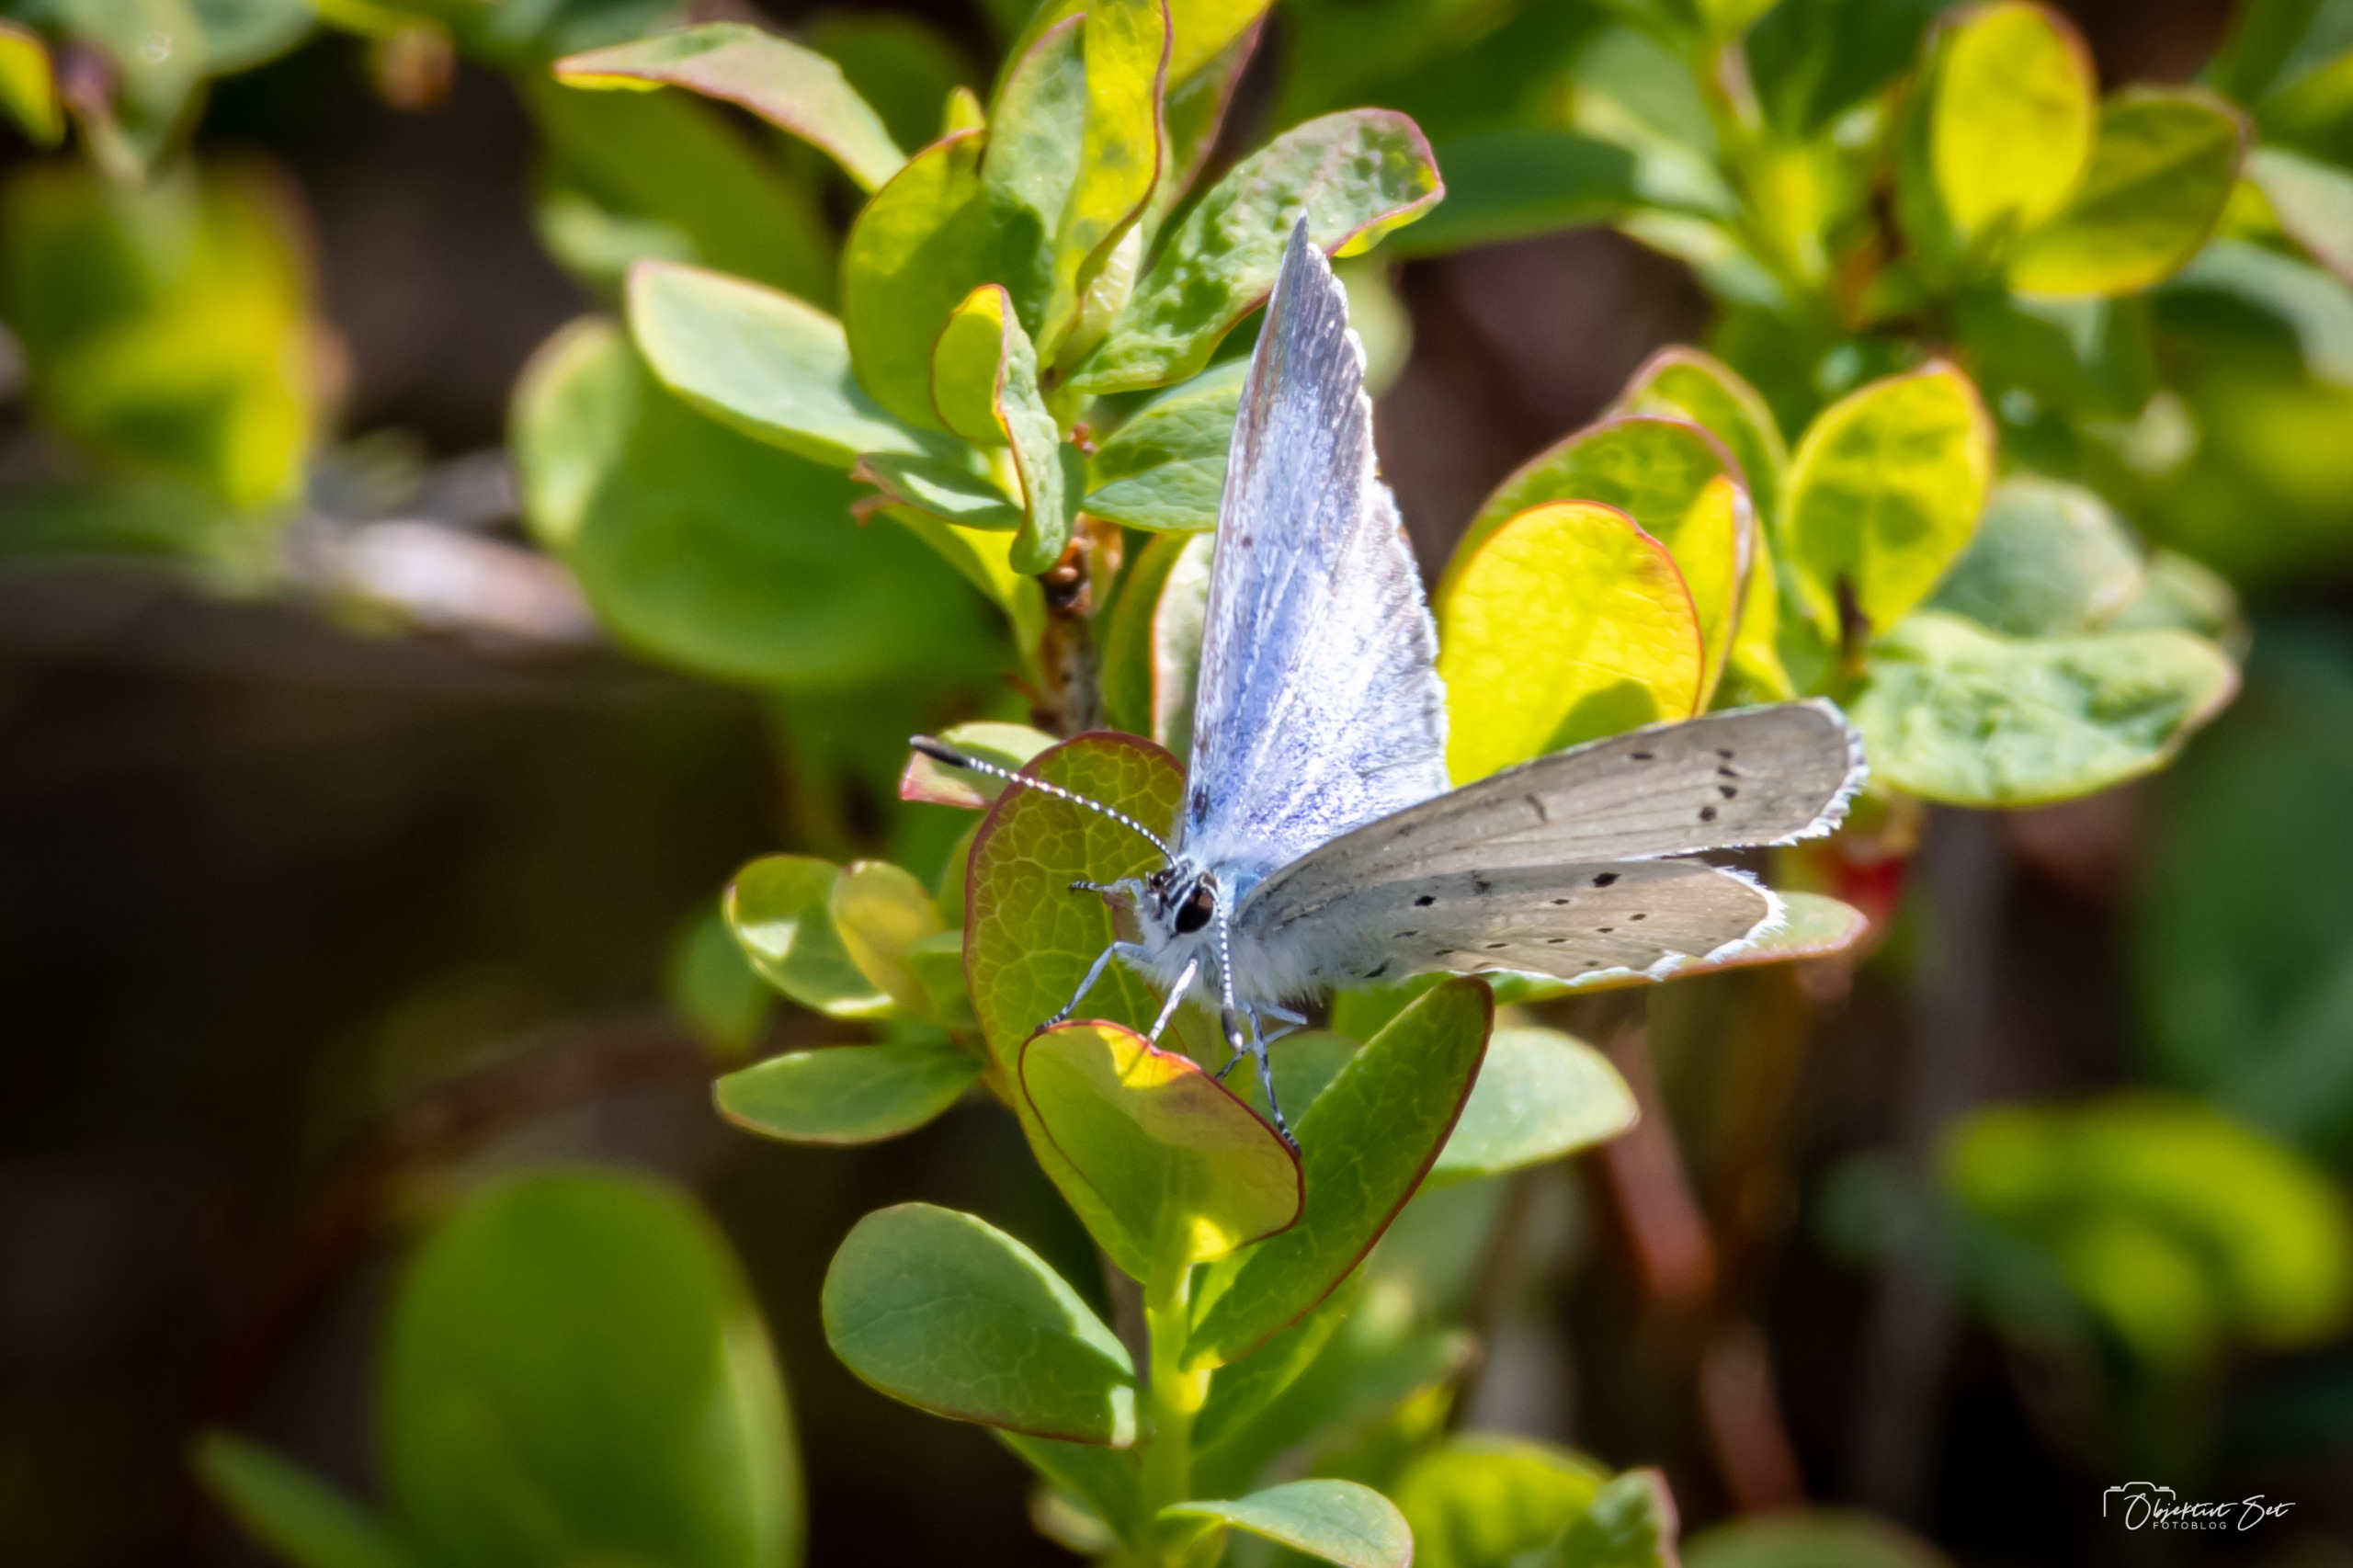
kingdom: Animalia
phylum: Arthropoda
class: Insecta
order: Lepidoptera
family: Lycaenidae
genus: Celastrina
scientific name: Celastrina argiolus
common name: Skovblåfugl
